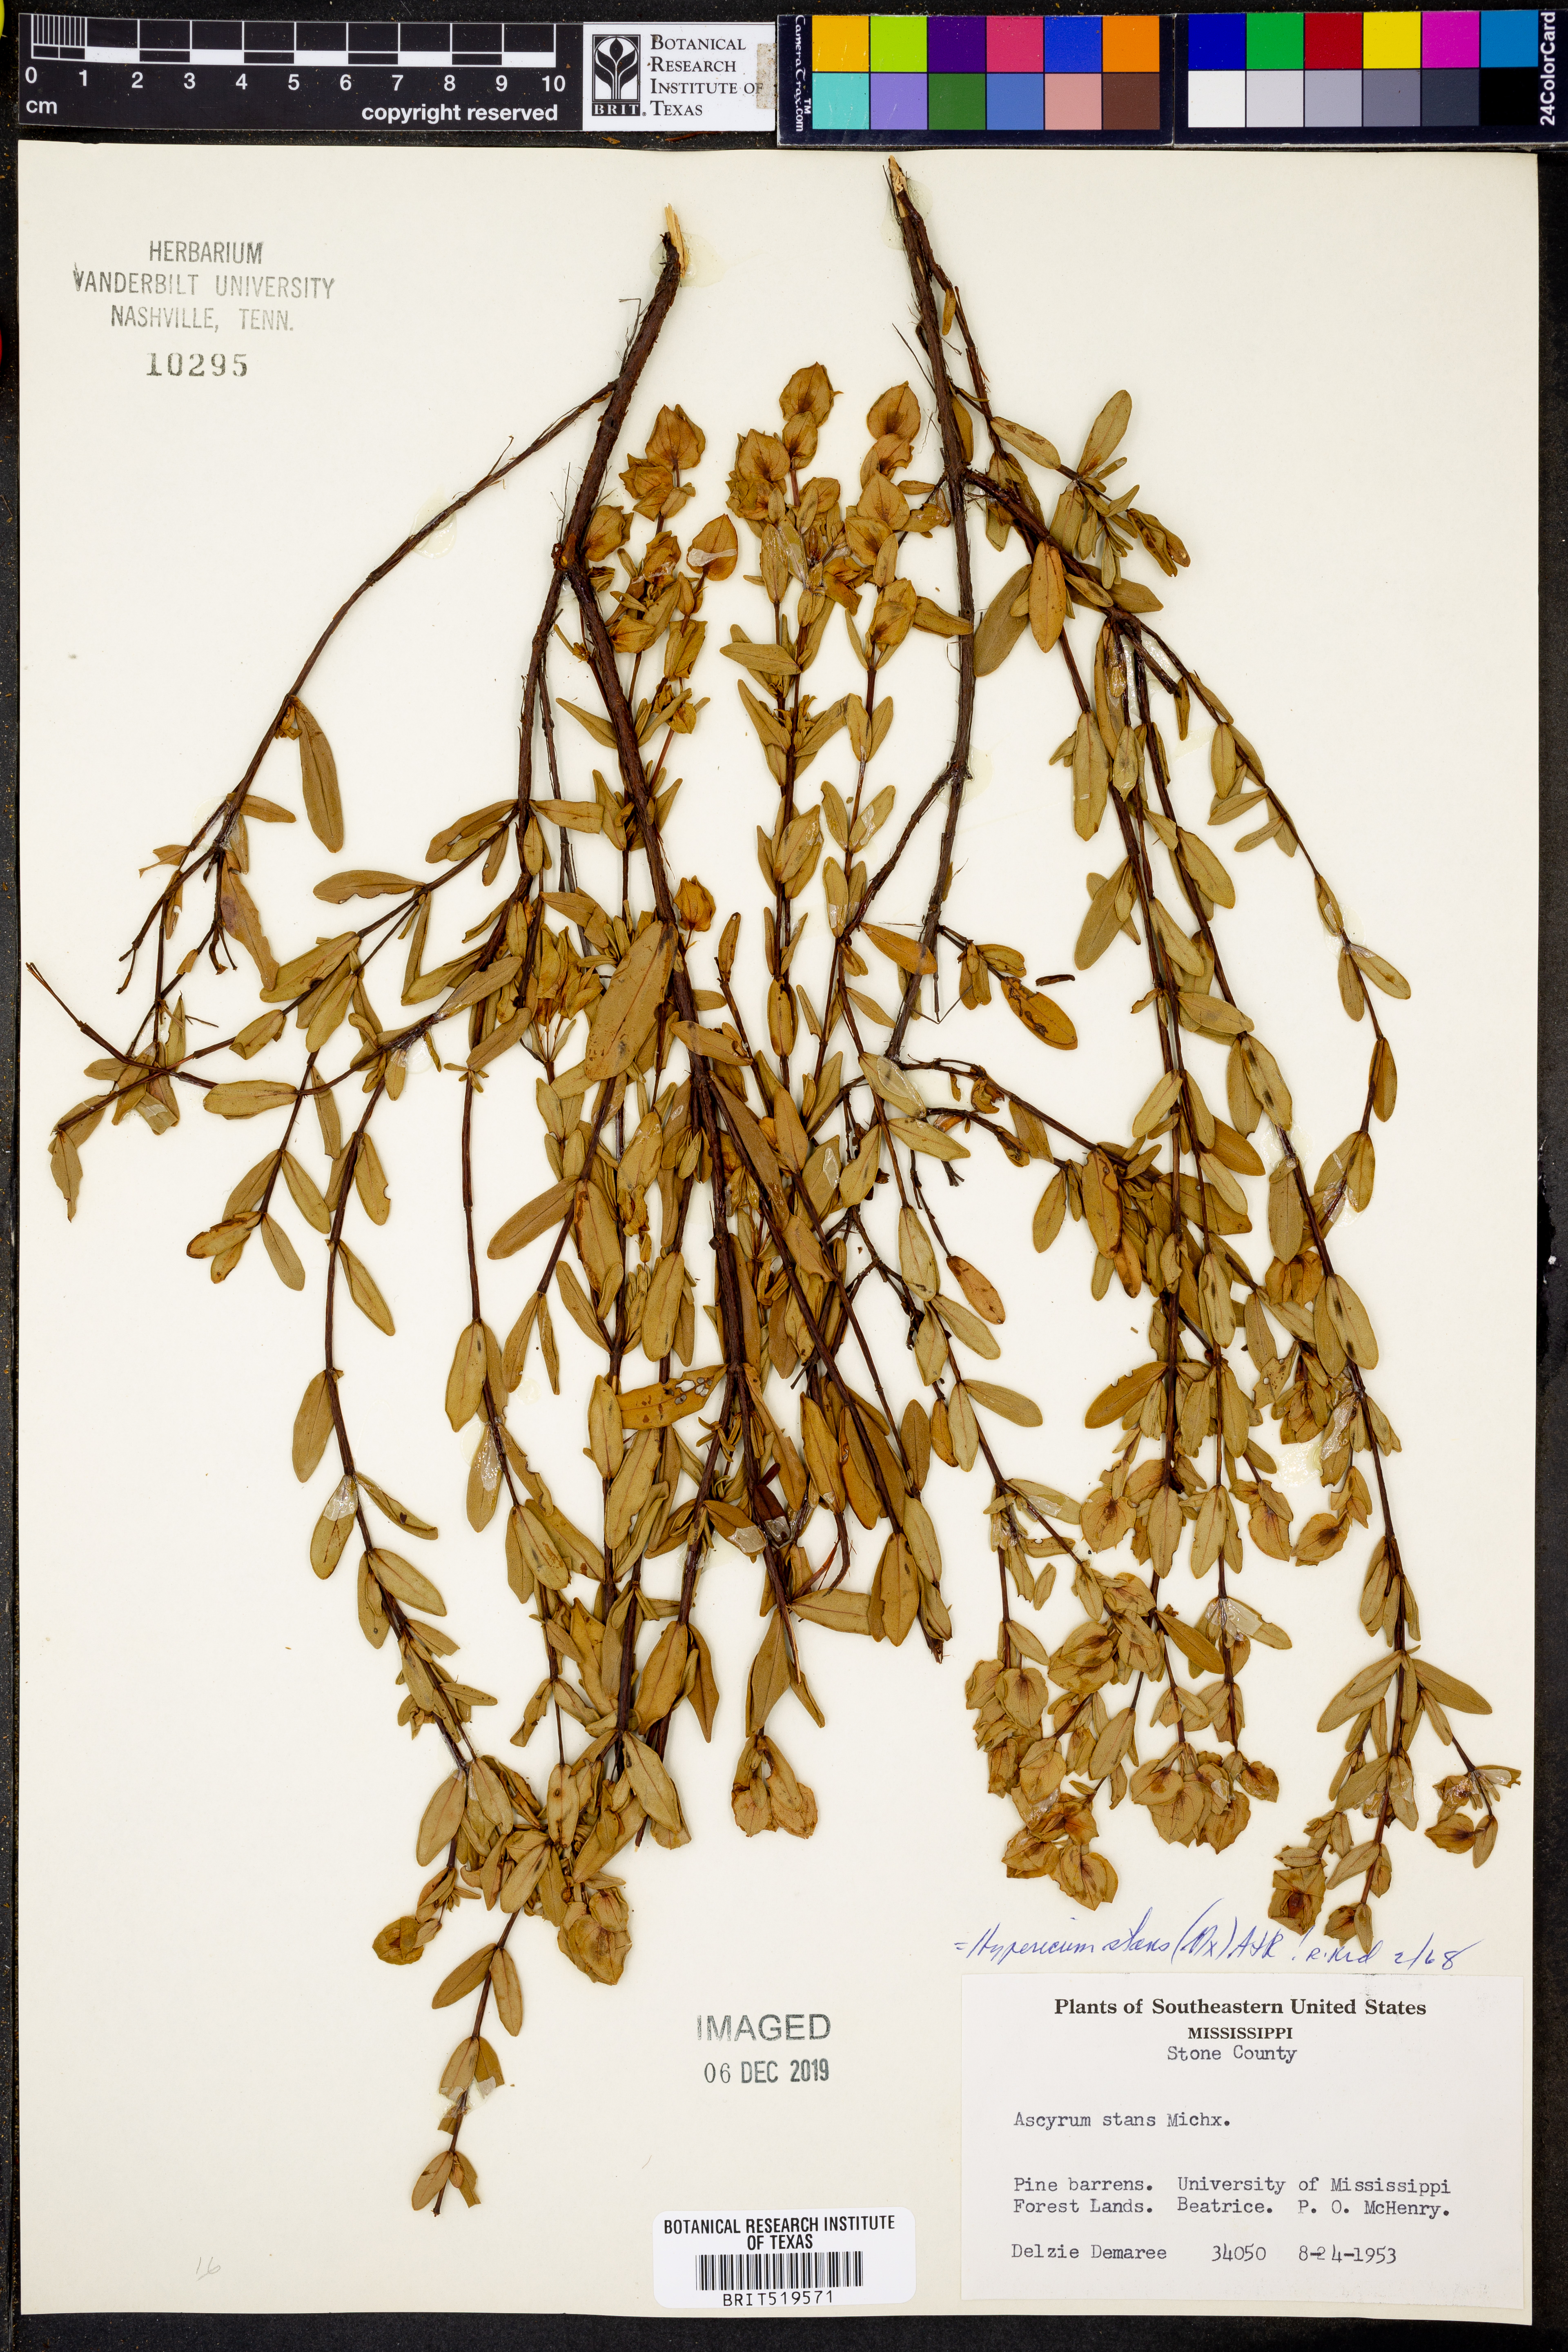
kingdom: Plantae
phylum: Tracheophyta
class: Magnoliopsida
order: Malpighiales
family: Hypericaceae
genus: Hypericum
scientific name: Hypericum crux-andreae
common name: St.-peter's-wort
